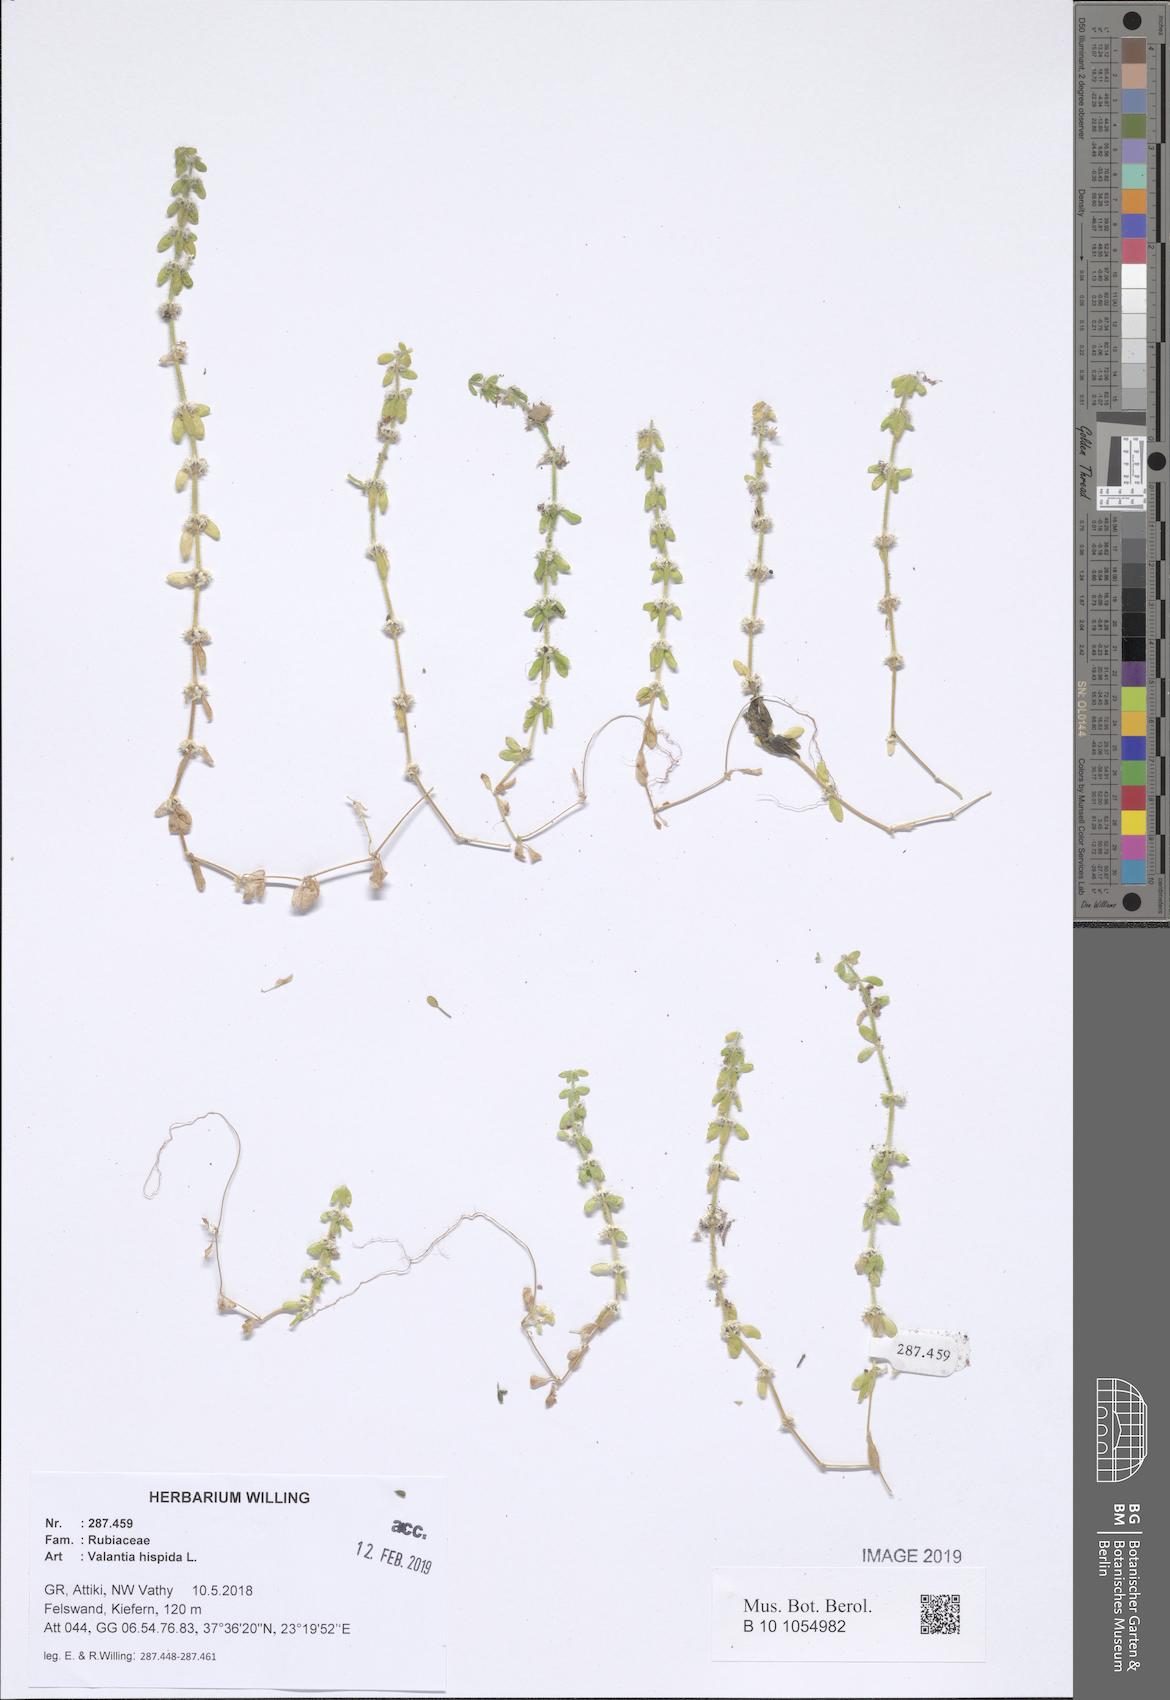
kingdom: Plantae
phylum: Tracheophyta
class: Magnoliopsida
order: Gentianales
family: Rubiaceae
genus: Valantia
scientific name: Valantia hispida
